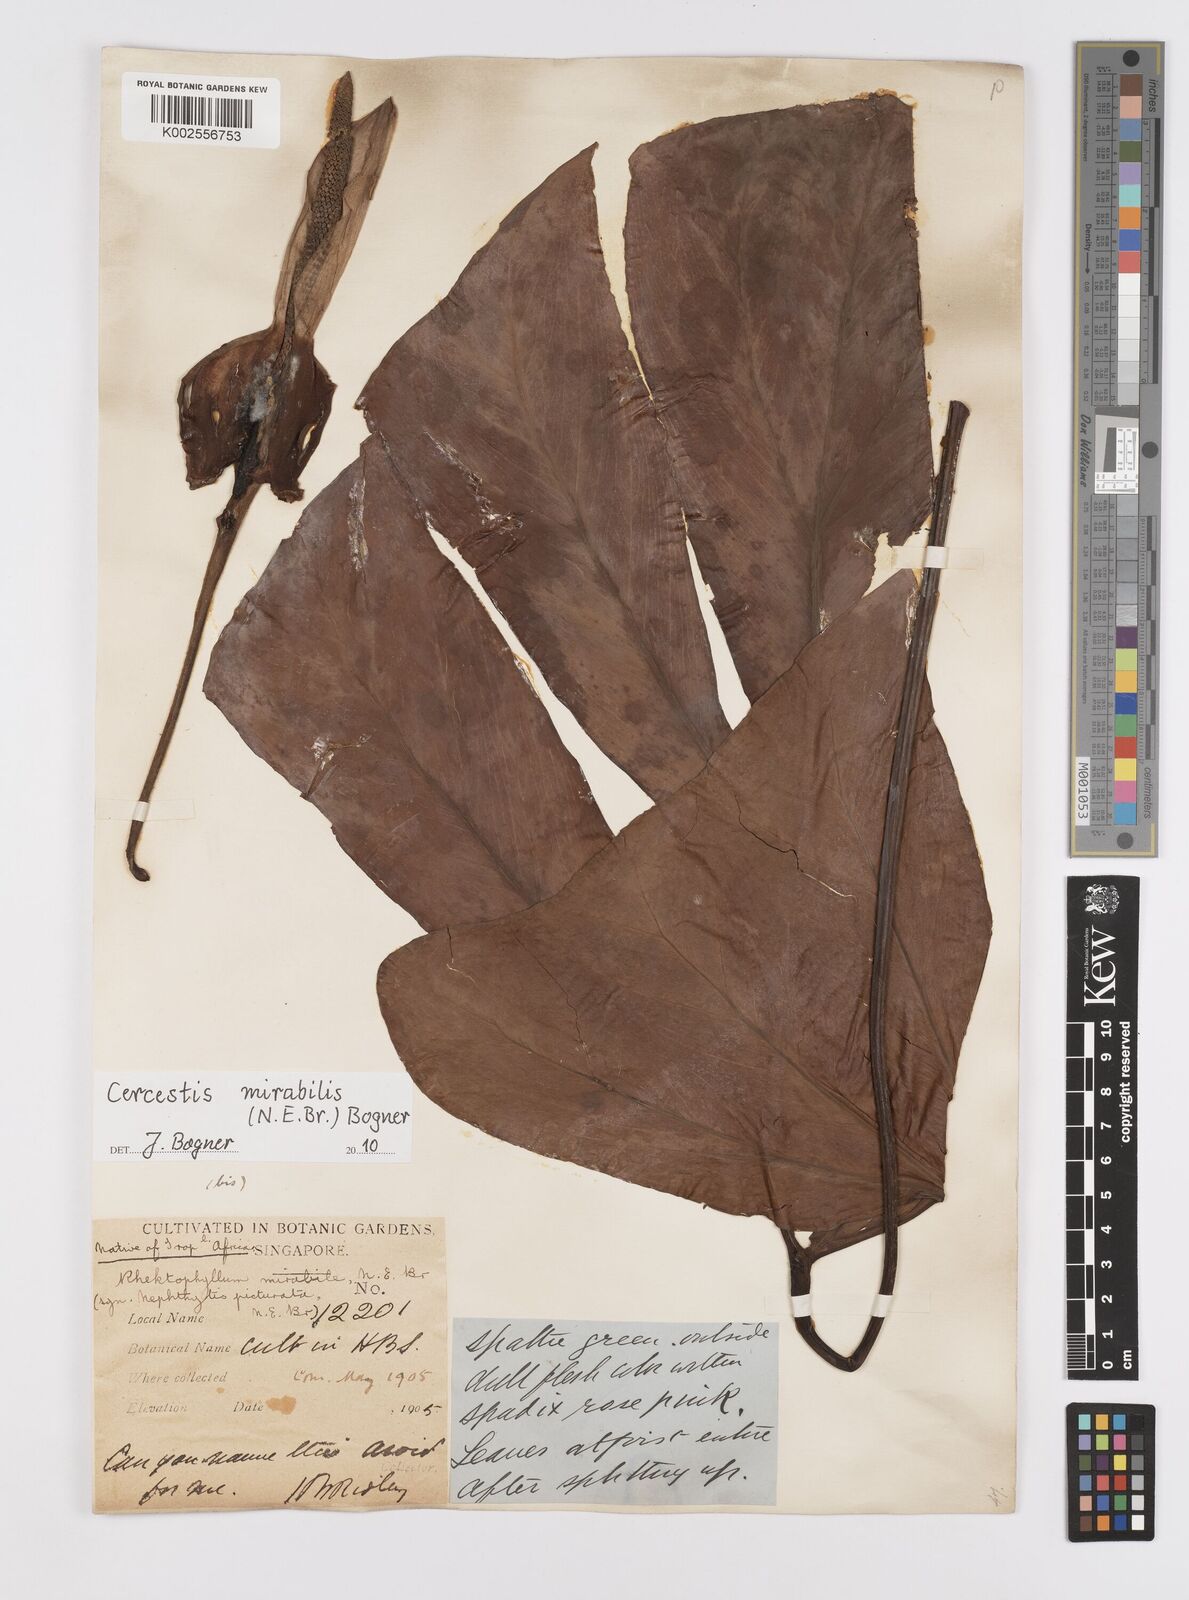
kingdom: Plantae
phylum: Tracheophyta
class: Liliopsida
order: Alismatales
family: Araceae
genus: Cercestis
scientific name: Cercestis mirabilis
